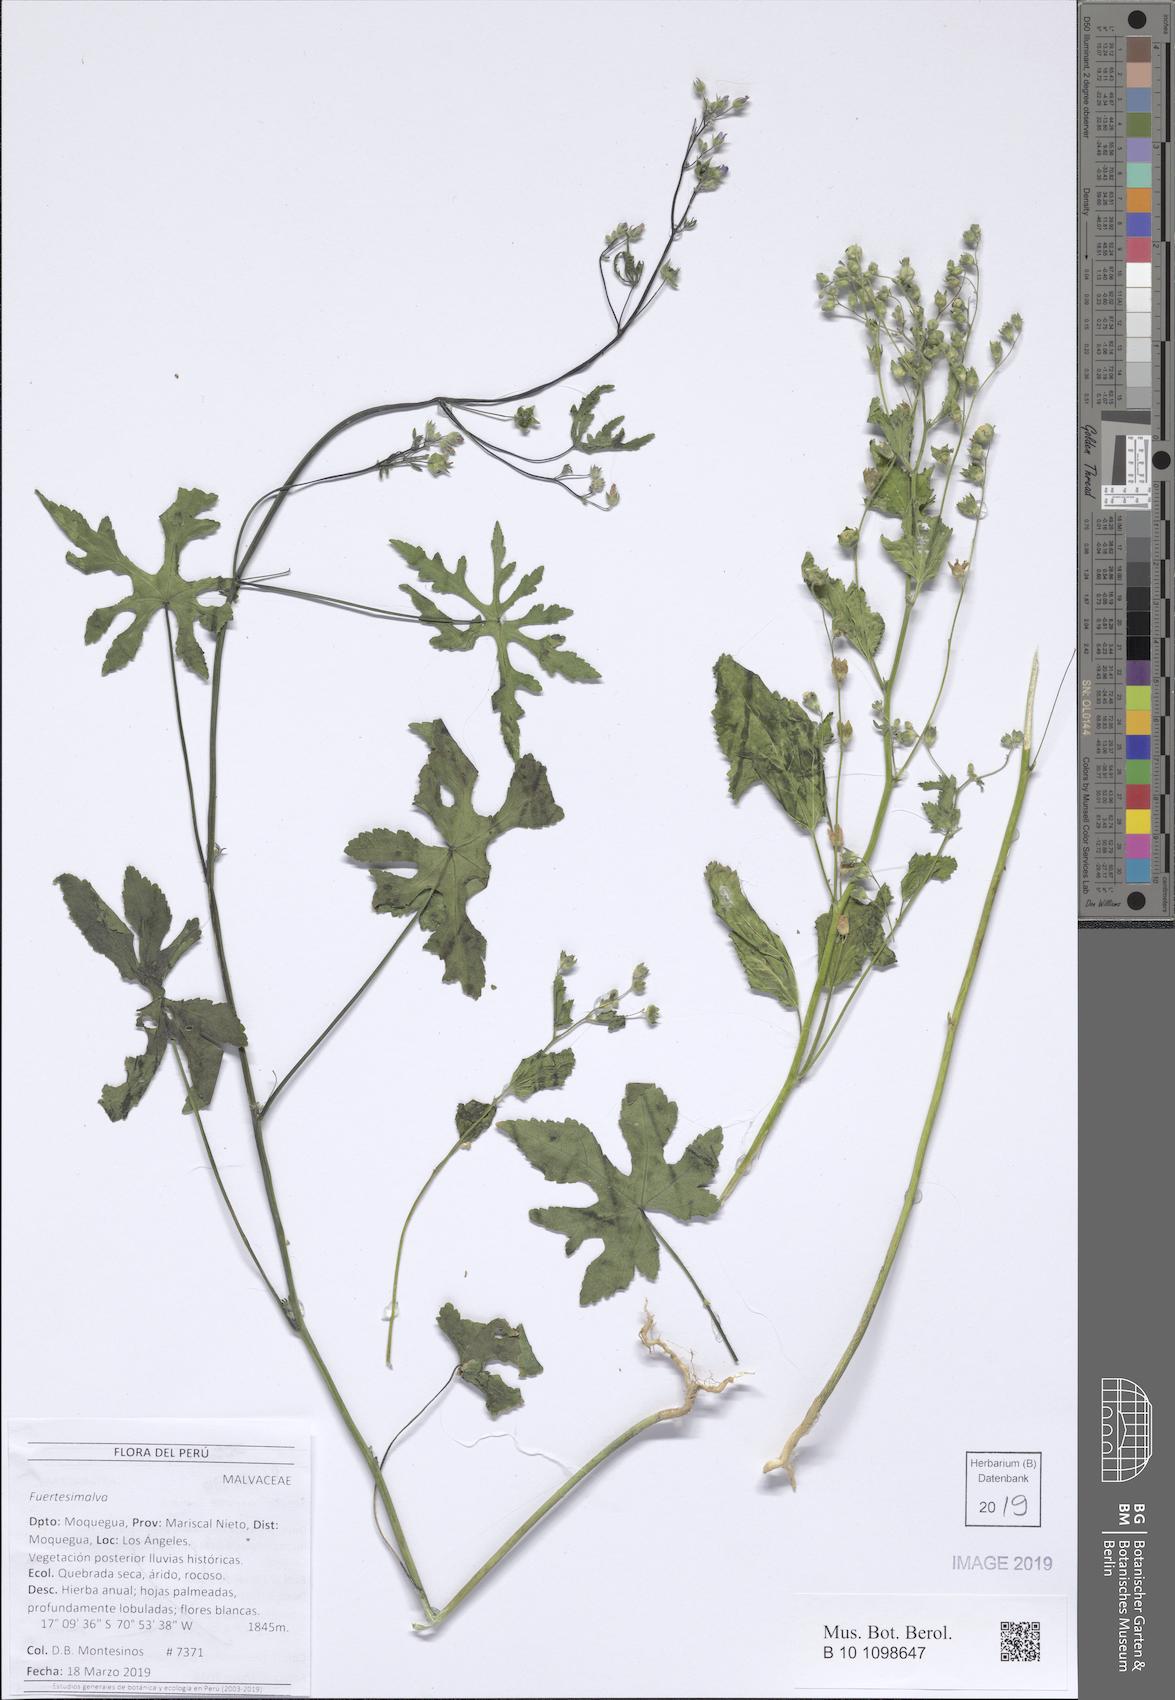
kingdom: Plantae
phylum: Tracheophyta
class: Magnoliopsida
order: Malvales
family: Malvaceae
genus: Fuertesimalva
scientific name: Fuertesimalva
